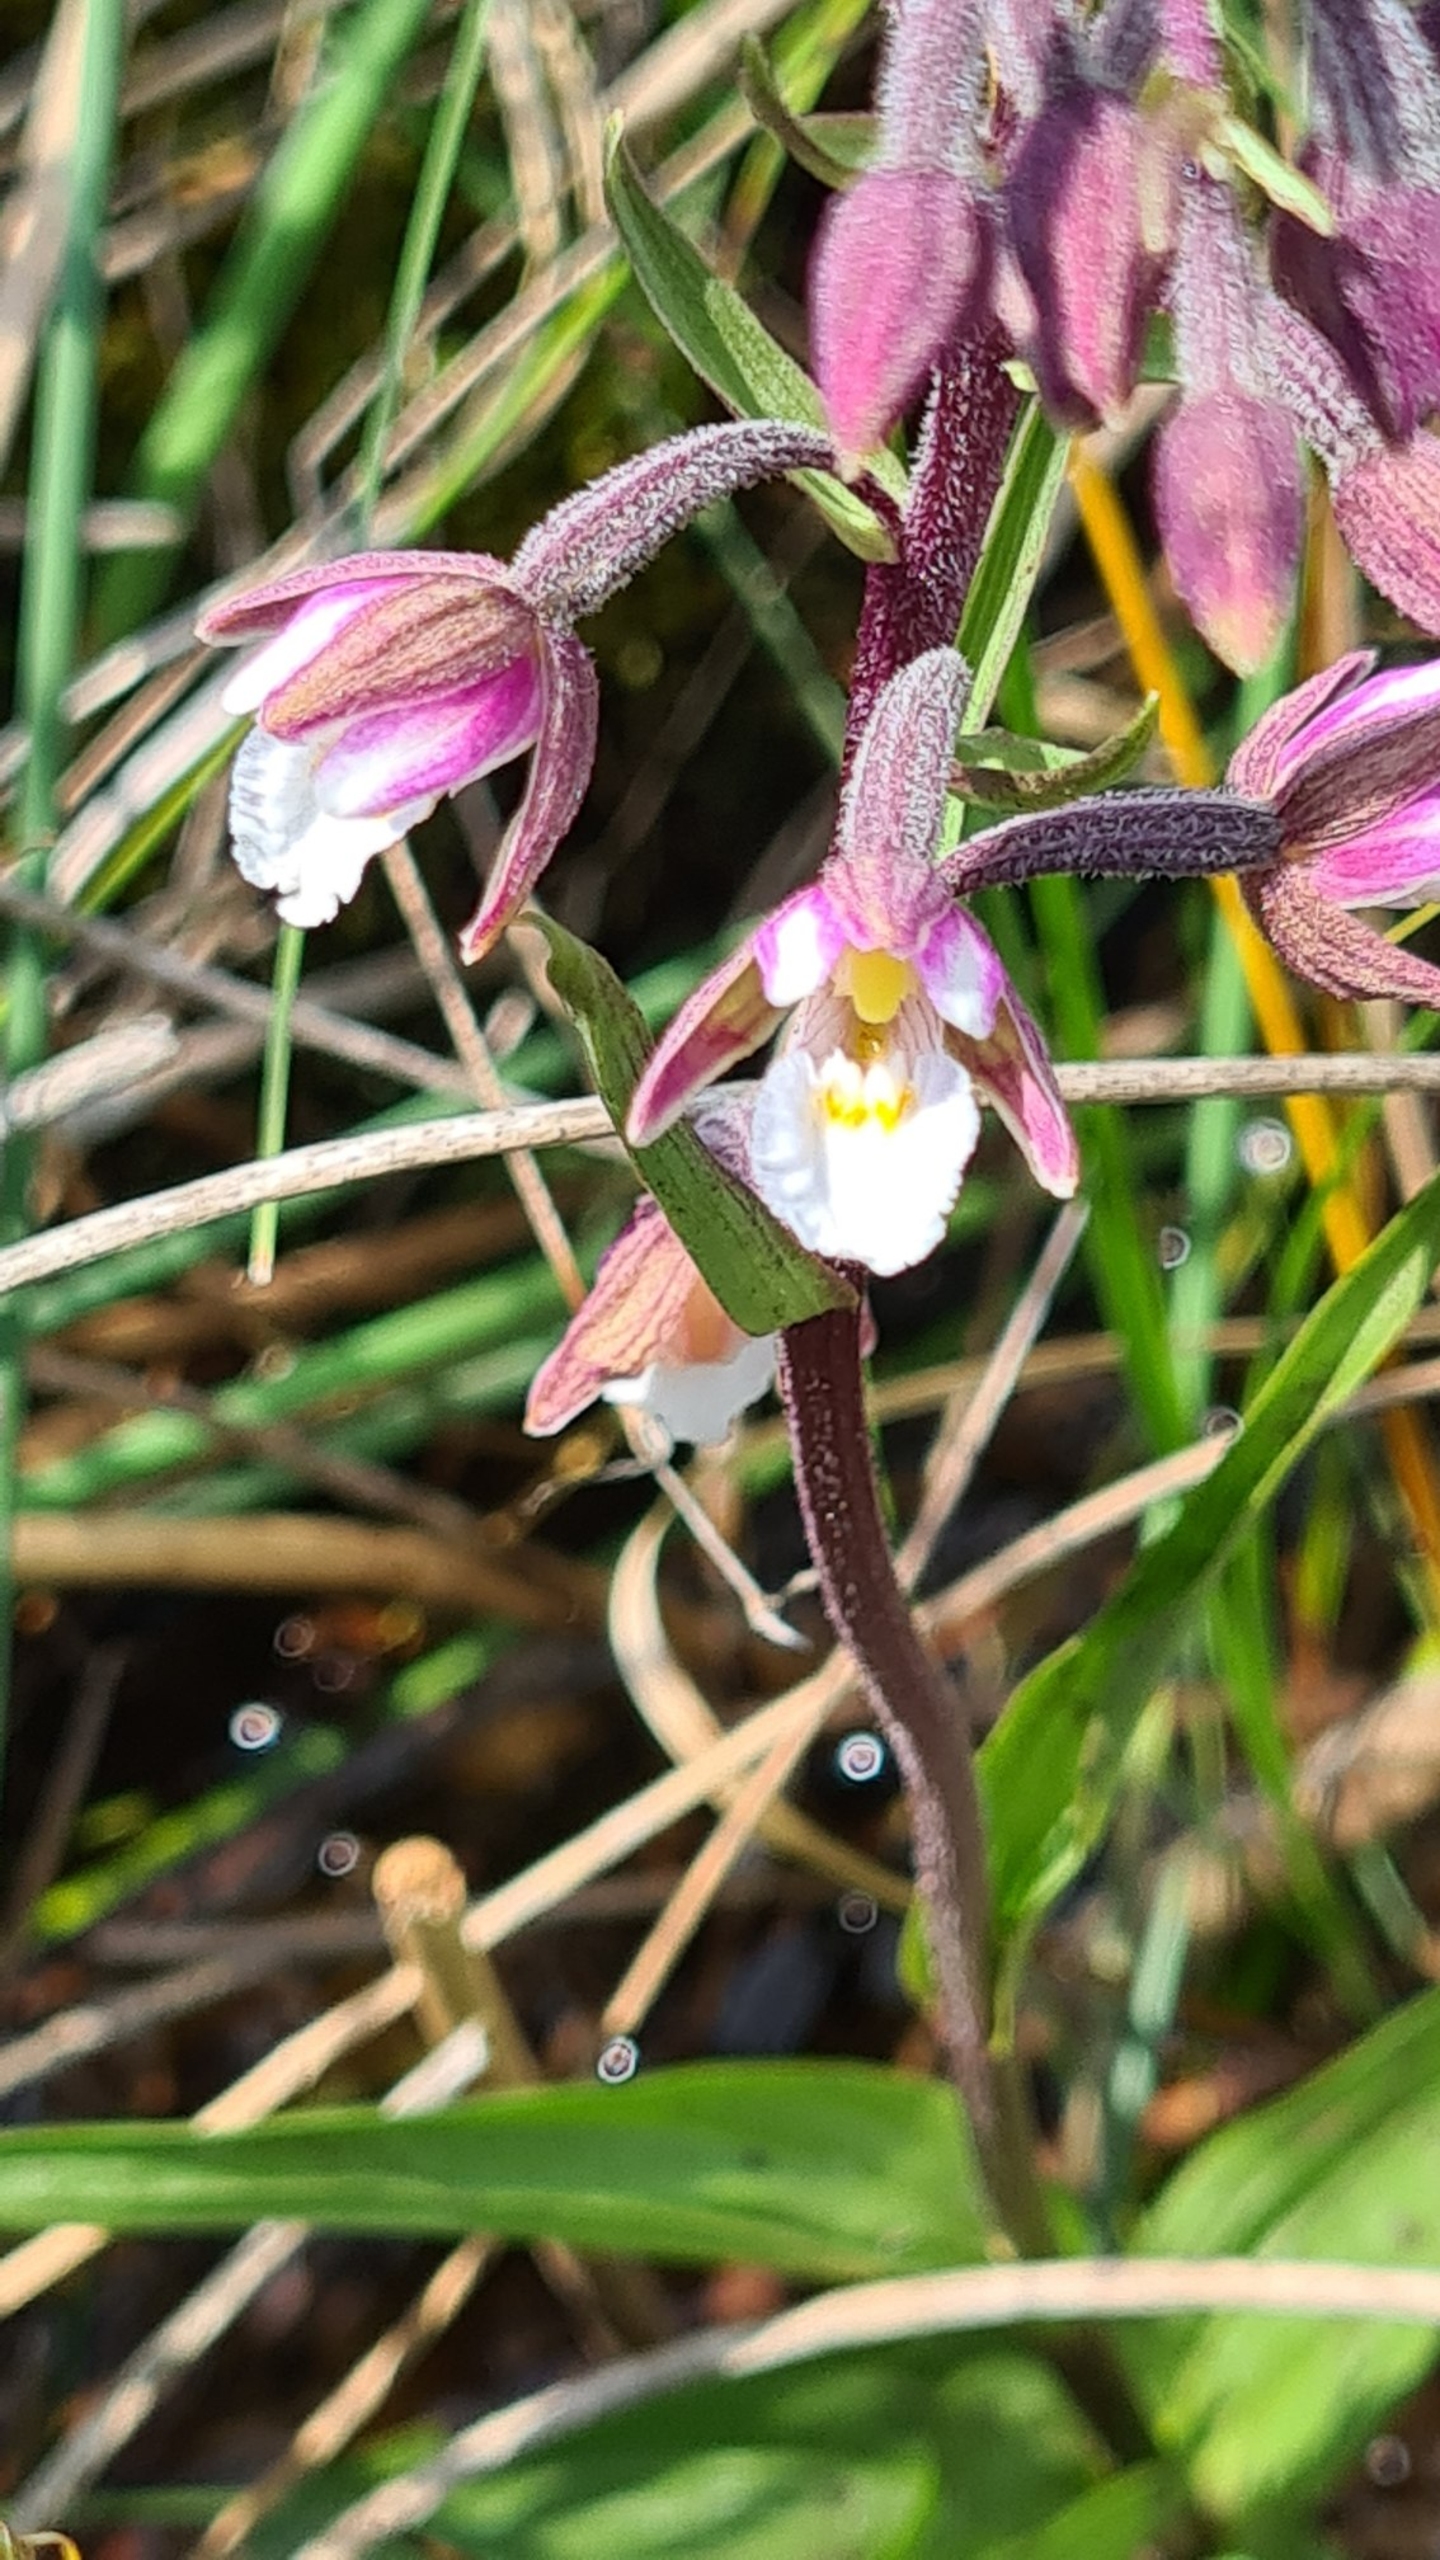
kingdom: Plantae
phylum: Tracheophyta
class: Liliopsida
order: Asparagales
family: Orchidaceae
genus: Epipactis
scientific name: Epipactis palustris
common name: Sump-hullæbe
